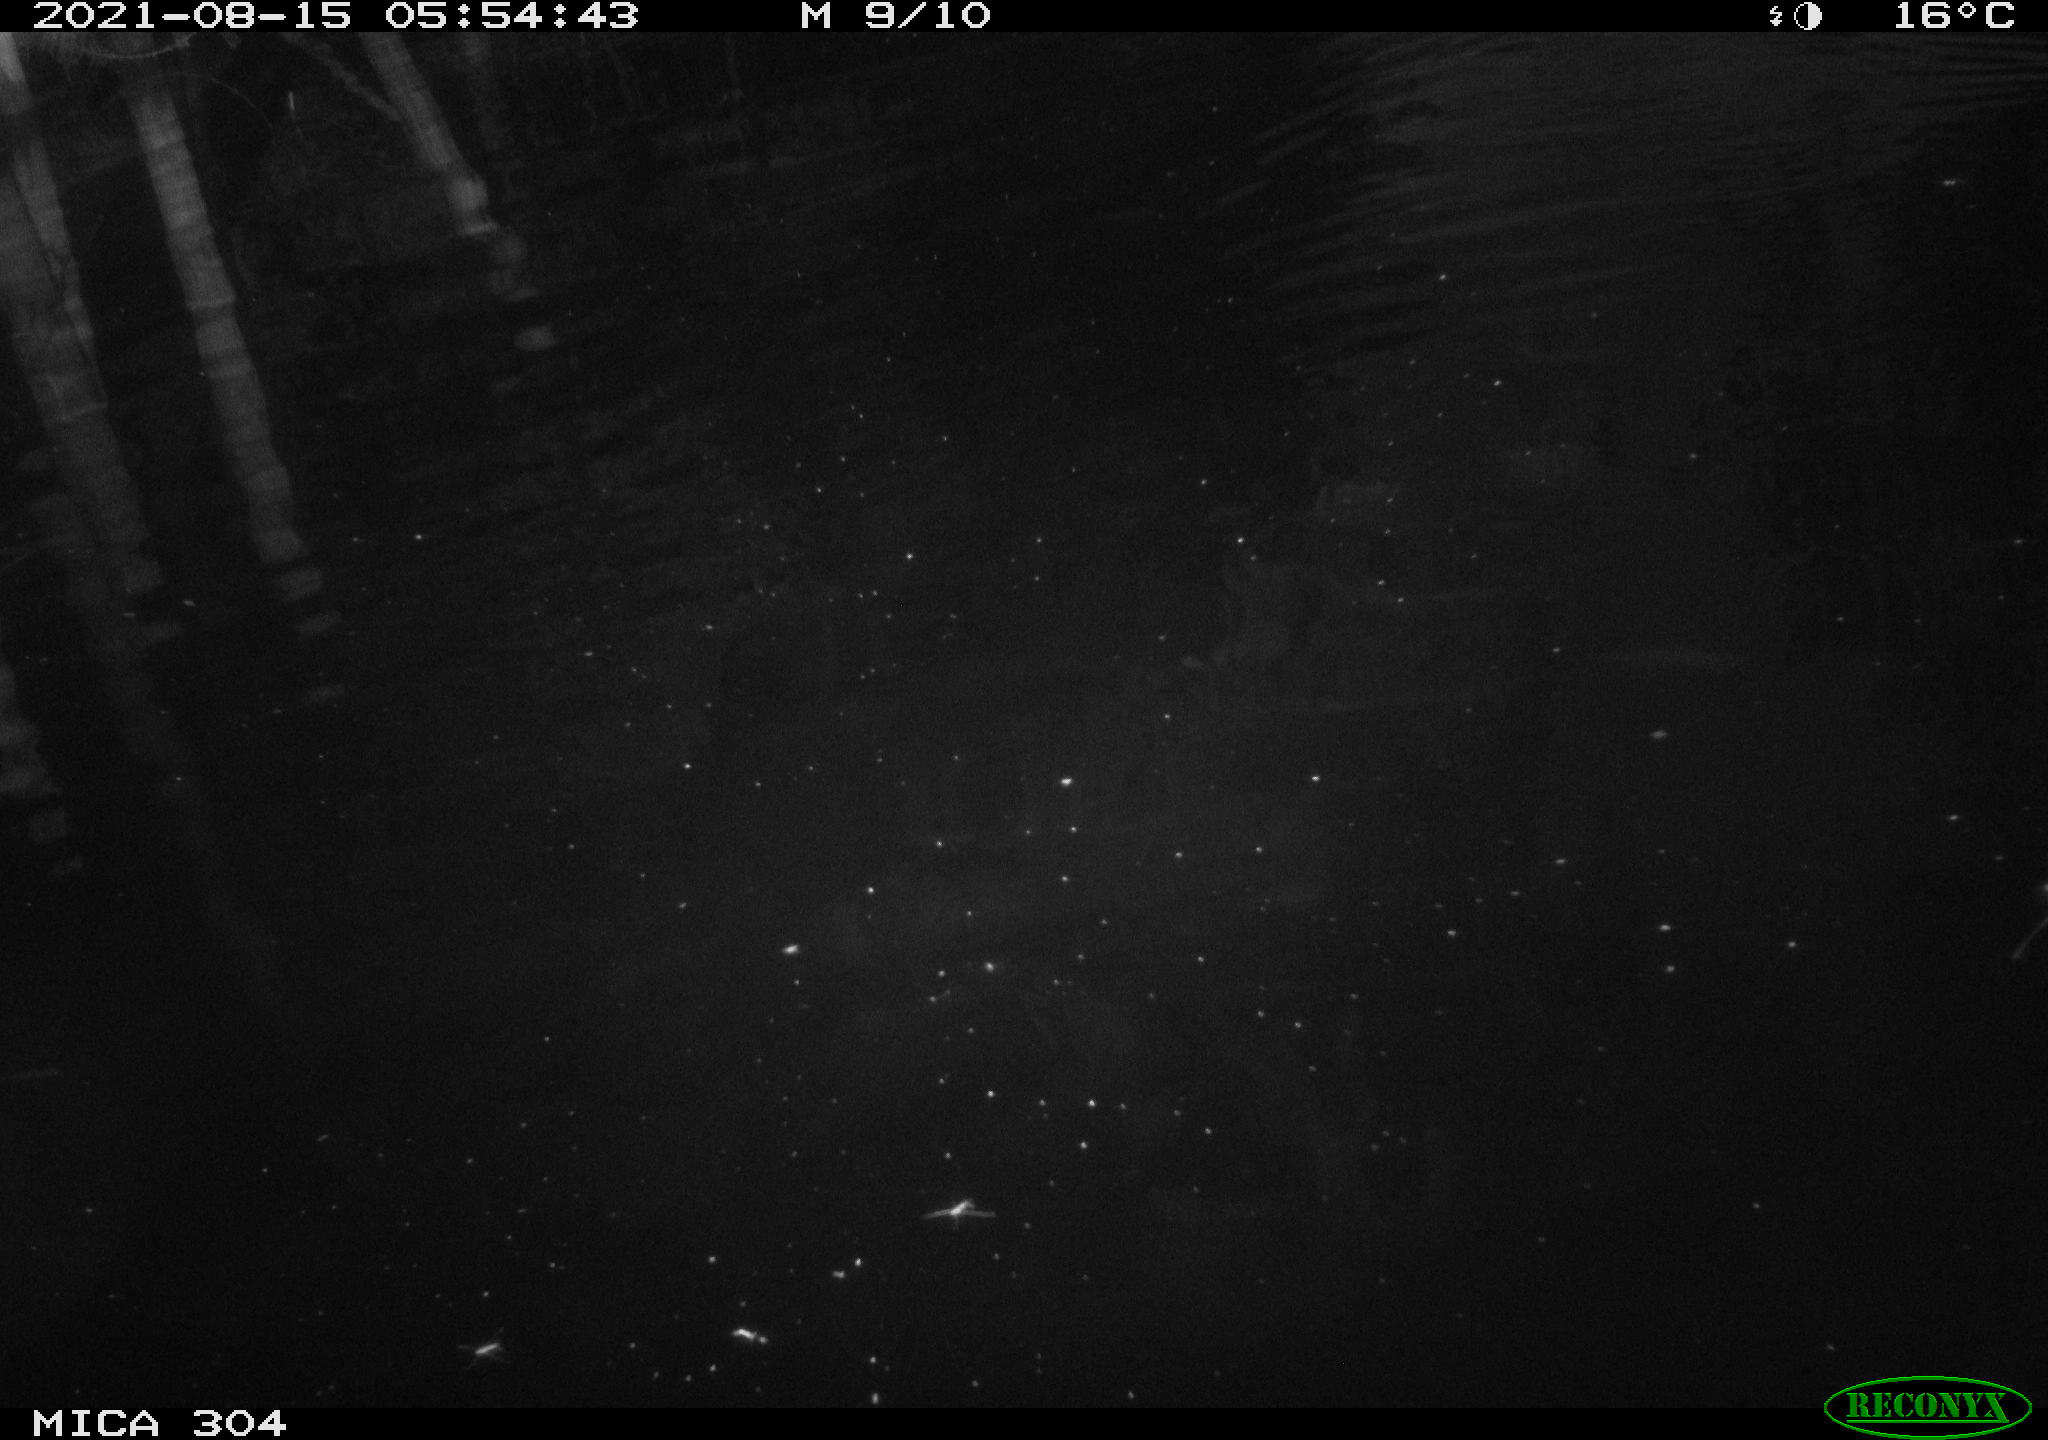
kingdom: Animalia
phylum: Chordata
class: Aves
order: Anseriformes
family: Anatidae
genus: Anas
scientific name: Anas platyrhynchos
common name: Mallard
